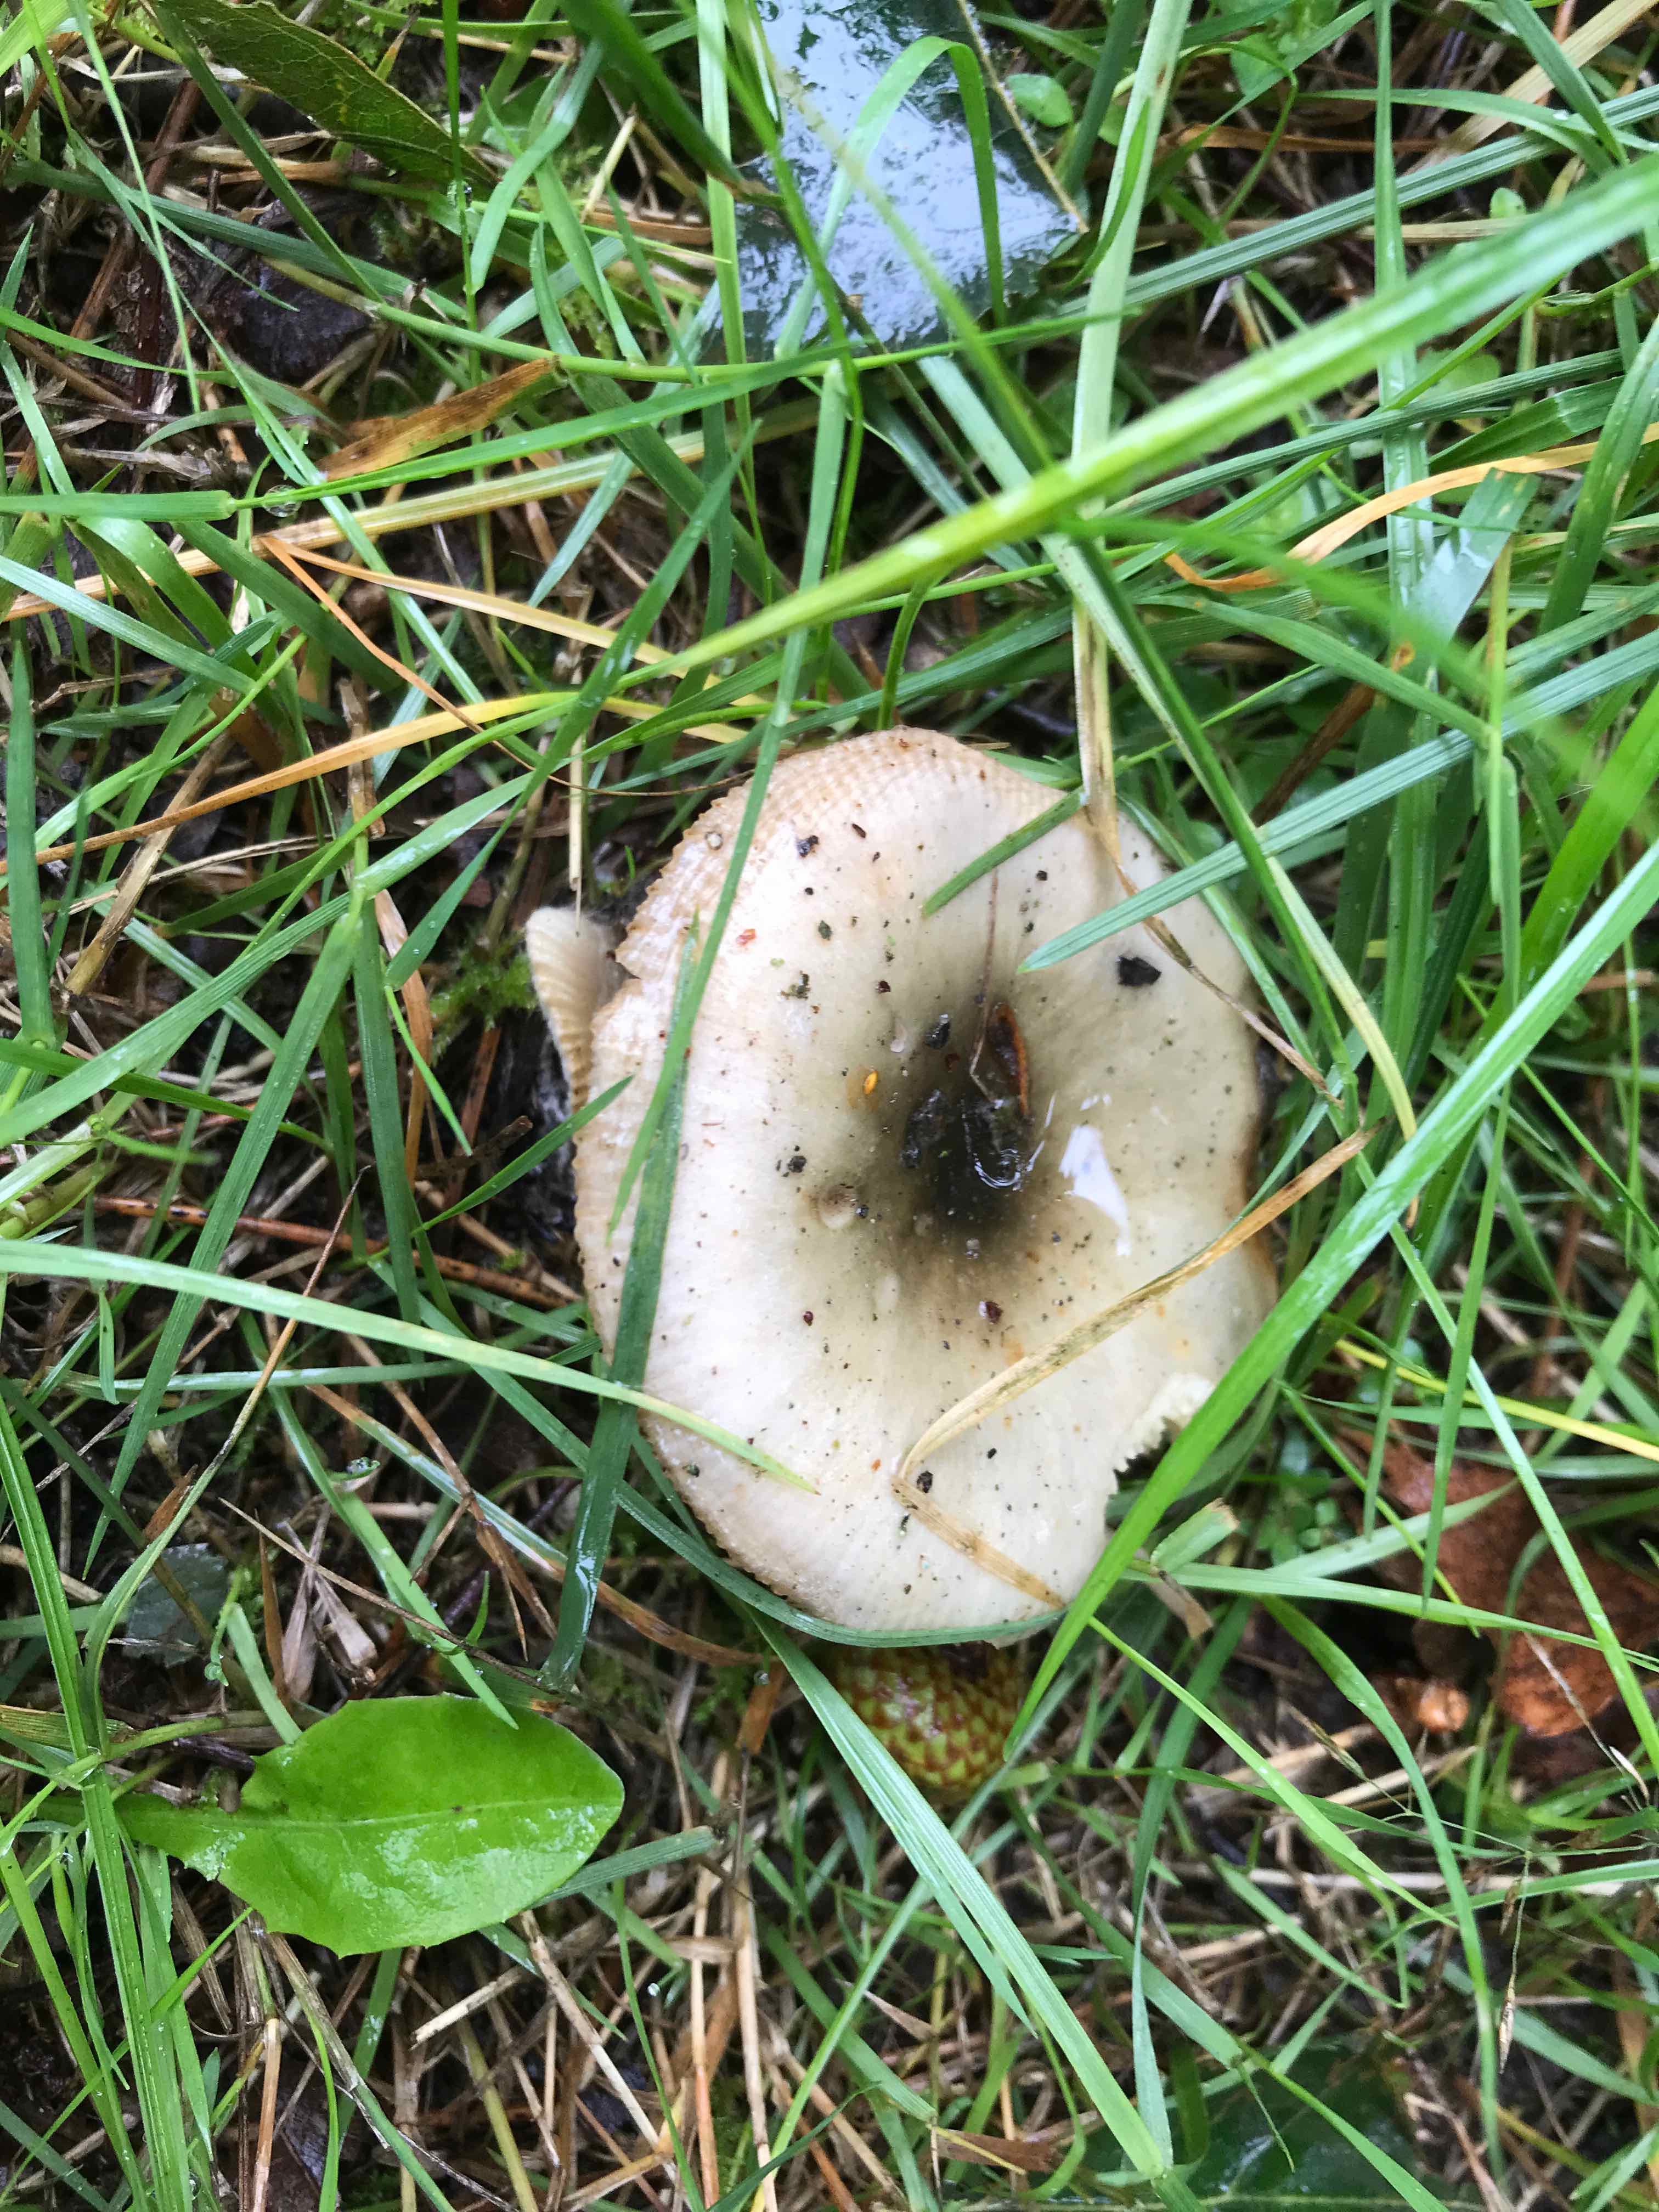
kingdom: Fungi
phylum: Basidiomycota
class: Agaricomycetes
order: Russulales
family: Russulaceae
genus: Russula
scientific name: Russula aeruginea
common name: græsgrøn skørhat
